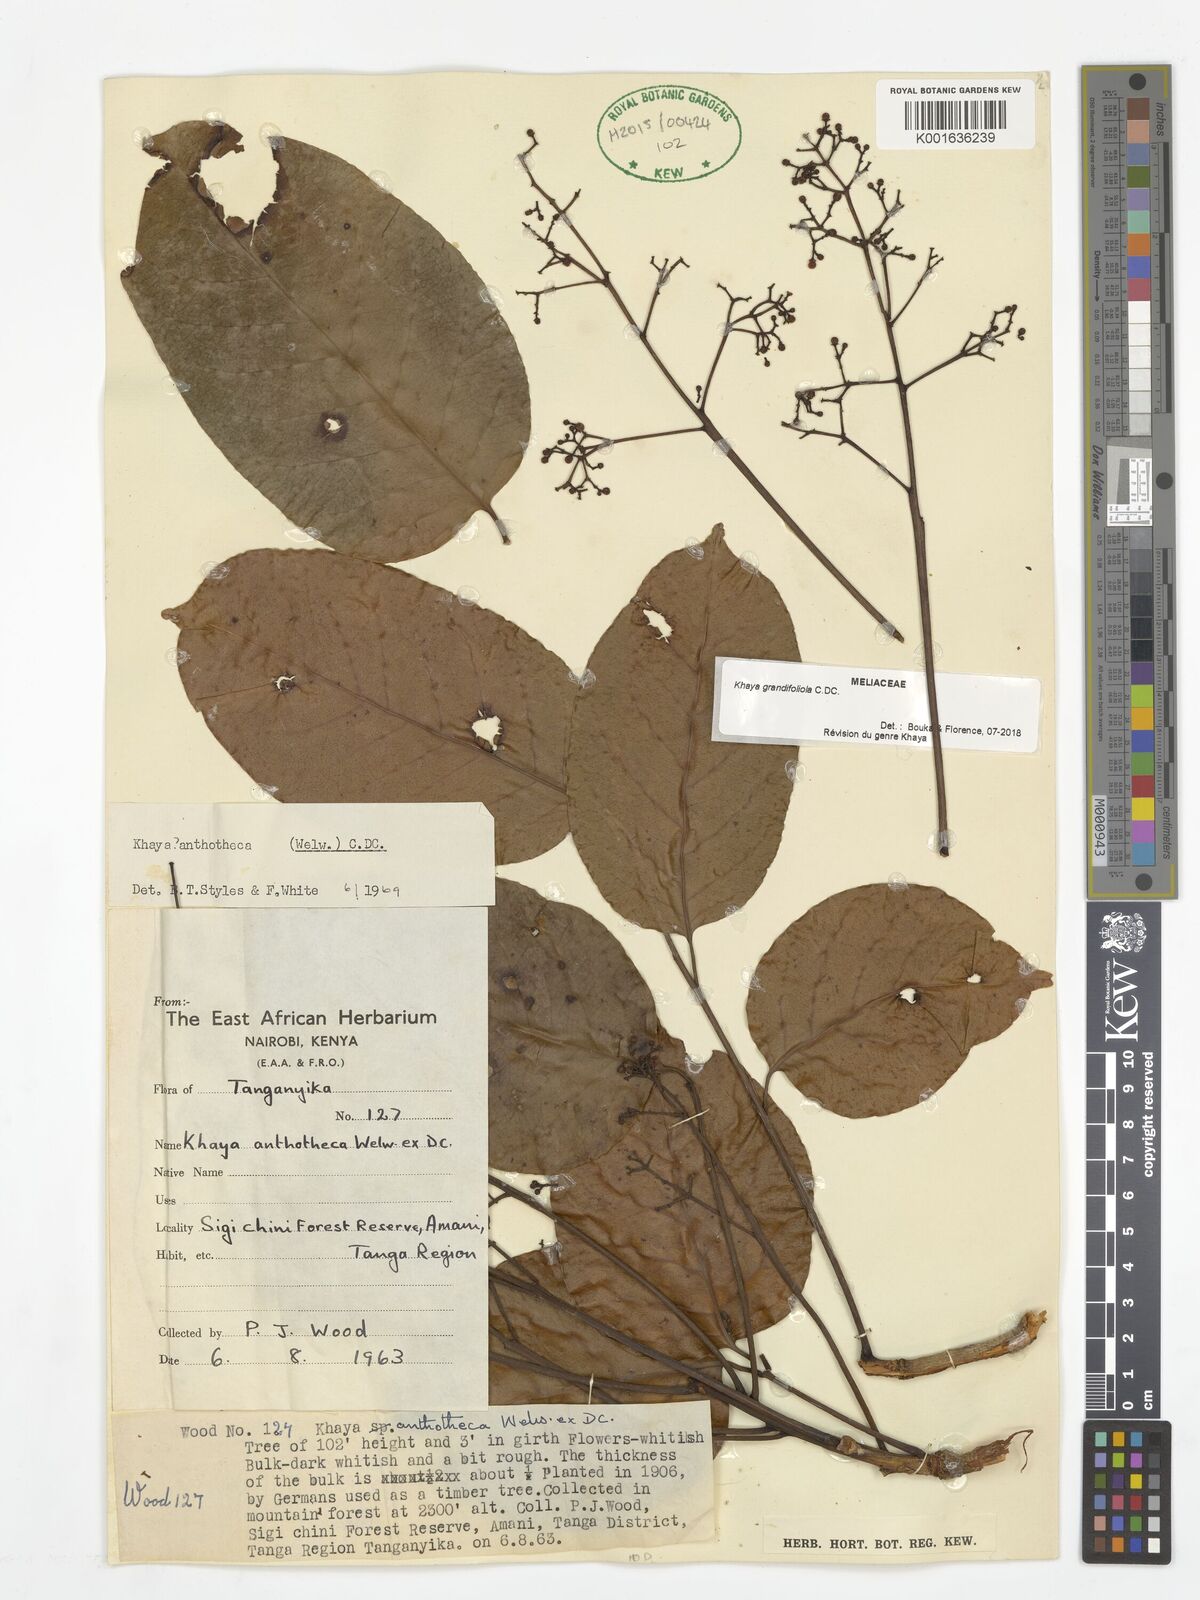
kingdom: Plantae
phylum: Tracheophyta
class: Magnoliopsida
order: Sapindales
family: Meliaceae
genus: Khaya
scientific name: Khaya grandifoliola
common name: African mahogany
